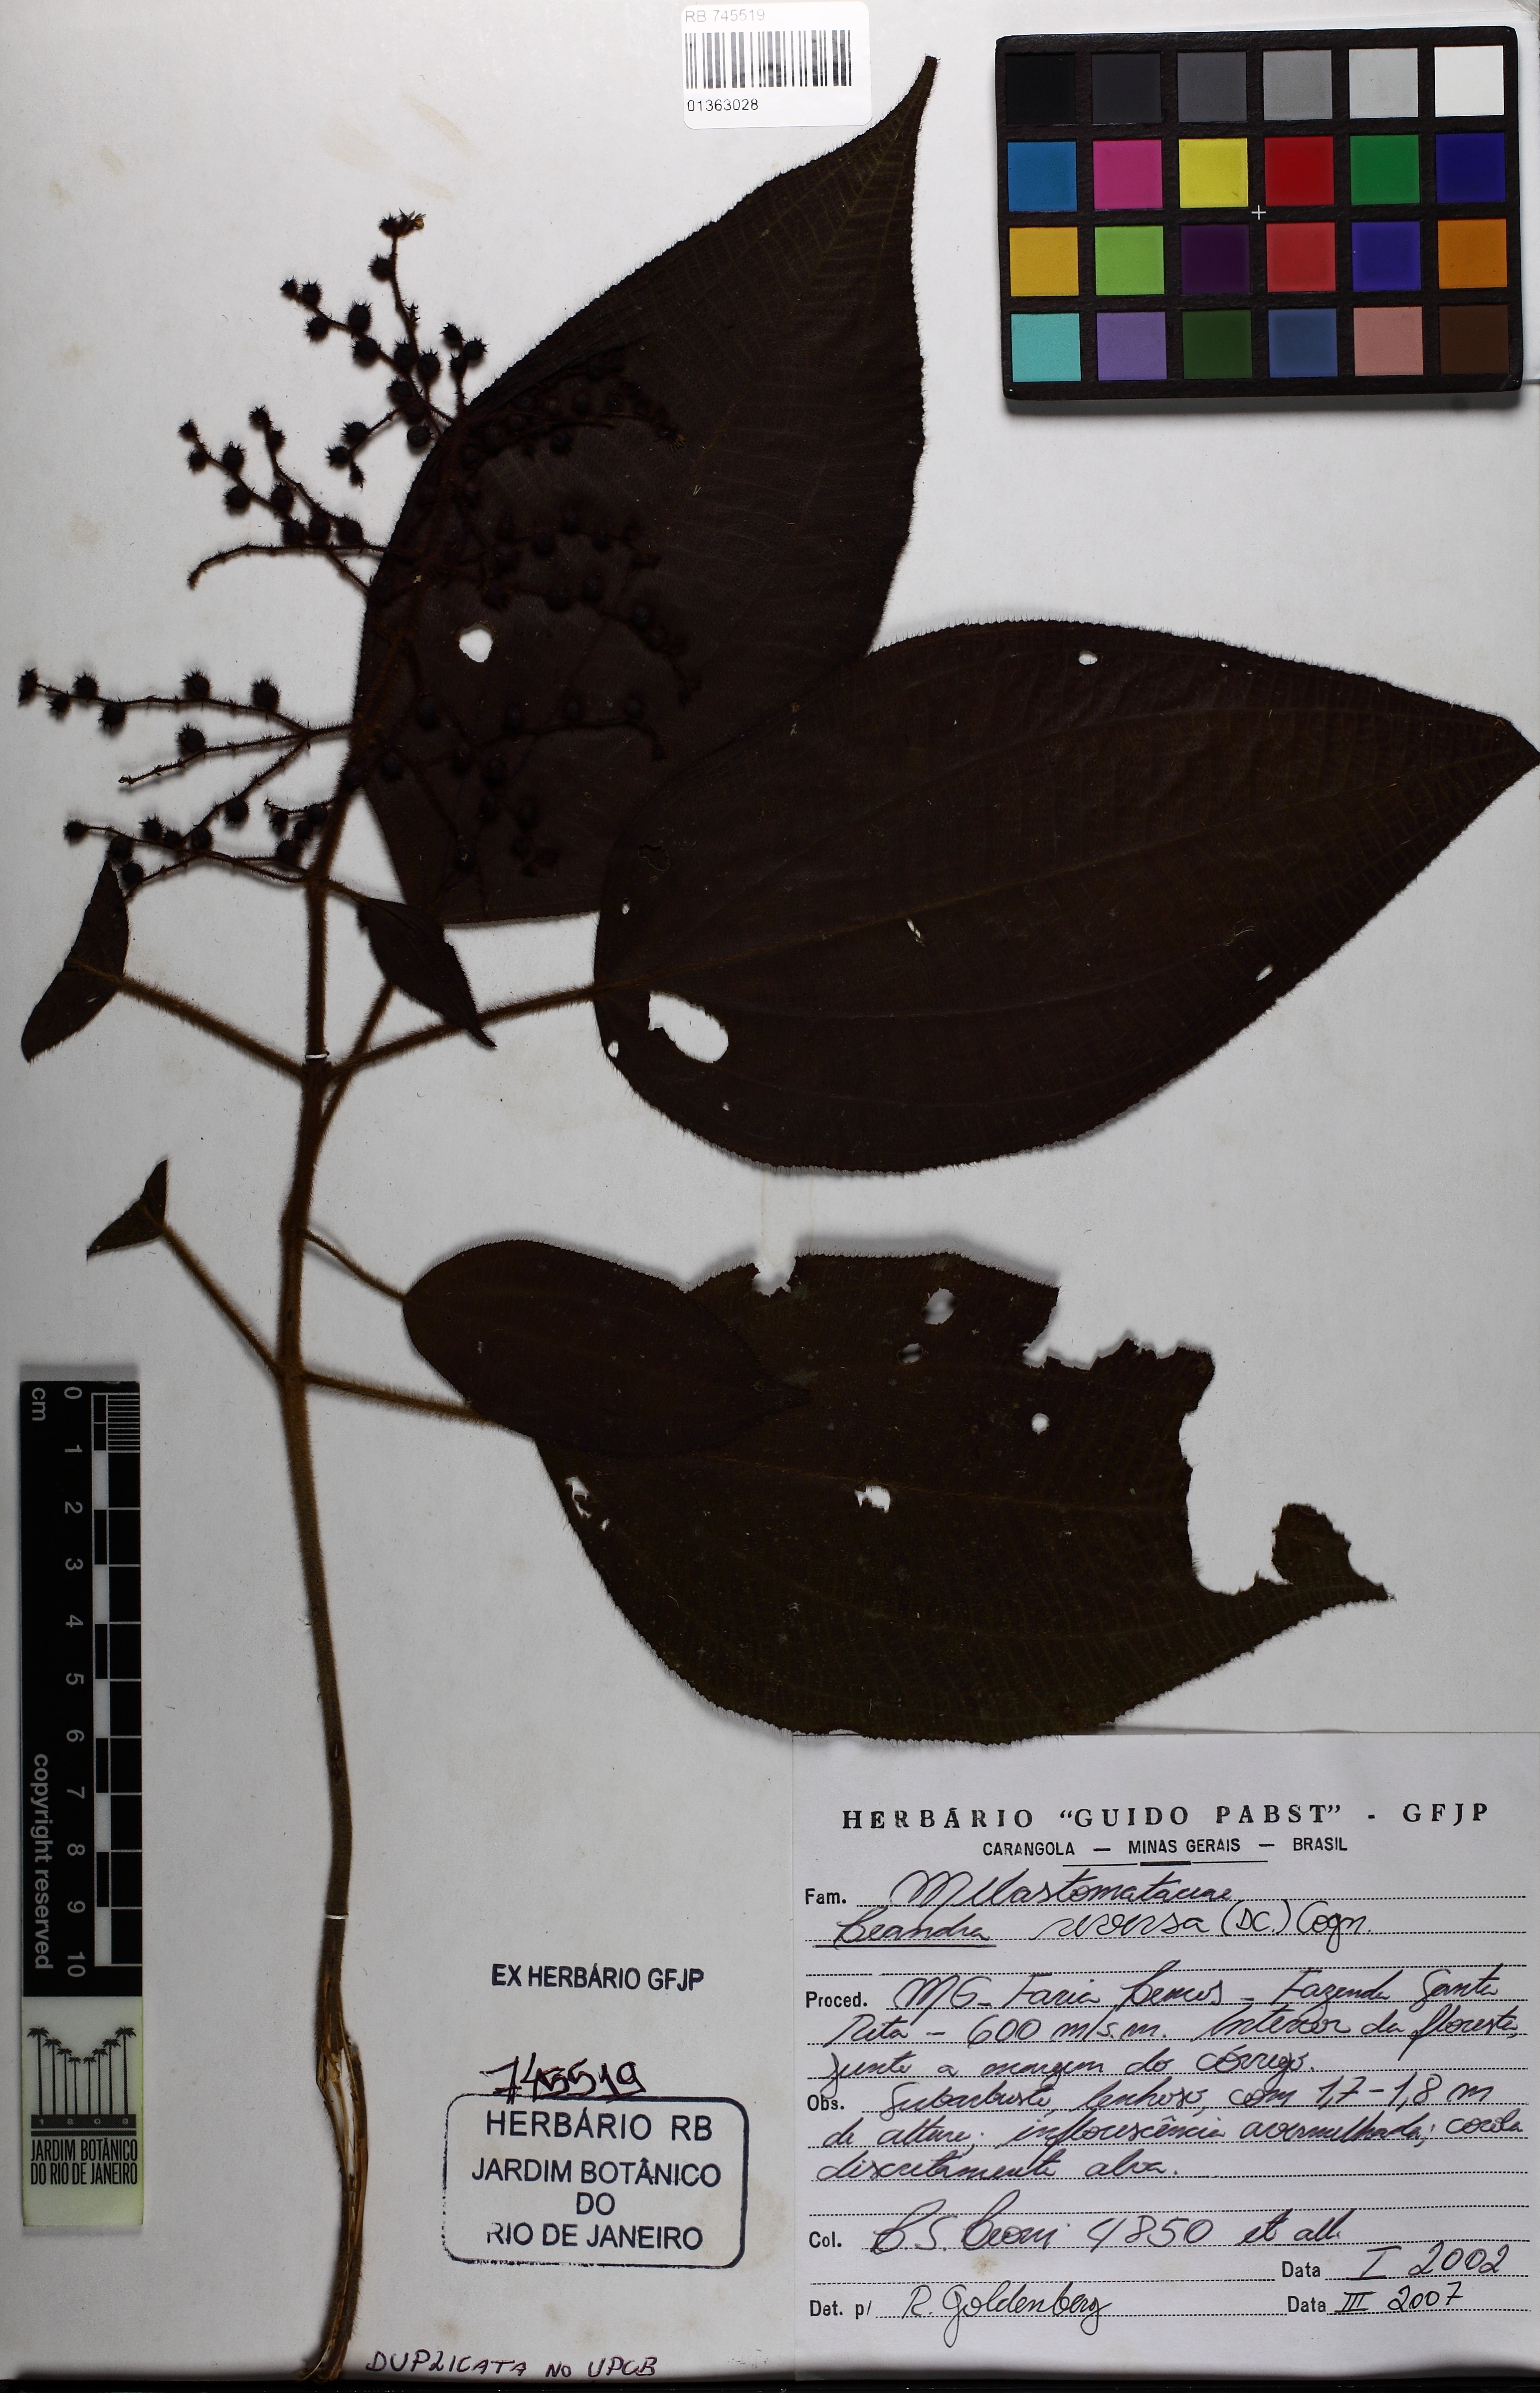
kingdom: Plantae
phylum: Tracheophyta
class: Magnoliopsida
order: Myrtales
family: Melastomataceae
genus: Miconia
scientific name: Miconia reversa
